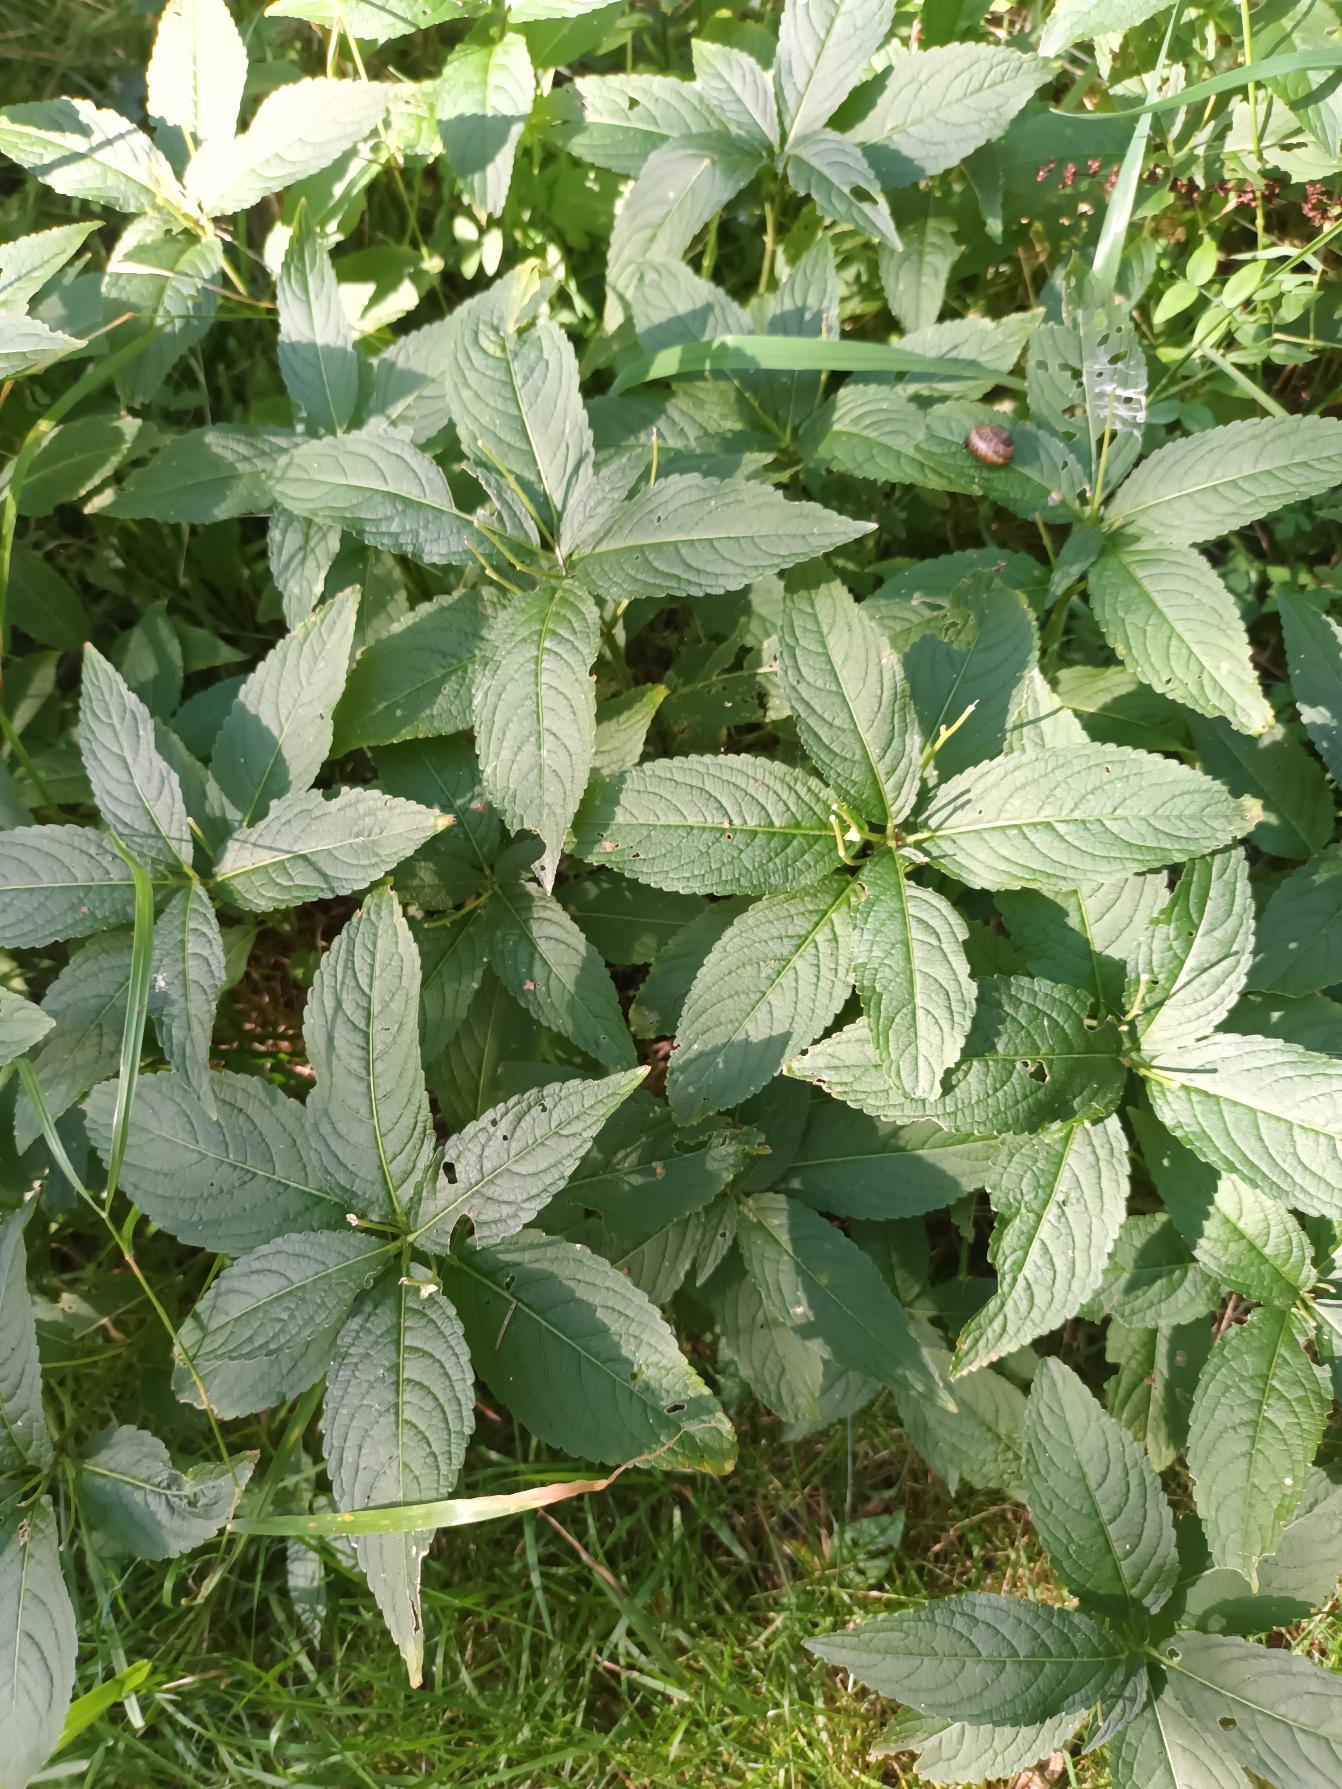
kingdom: Plantae
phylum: Tracheophyta
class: Magnoliopsida
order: Malpighiales
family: Euphorbiaceae
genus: Mercurialis
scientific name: Mercurialis perennis
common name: Almindelig bingelurt
